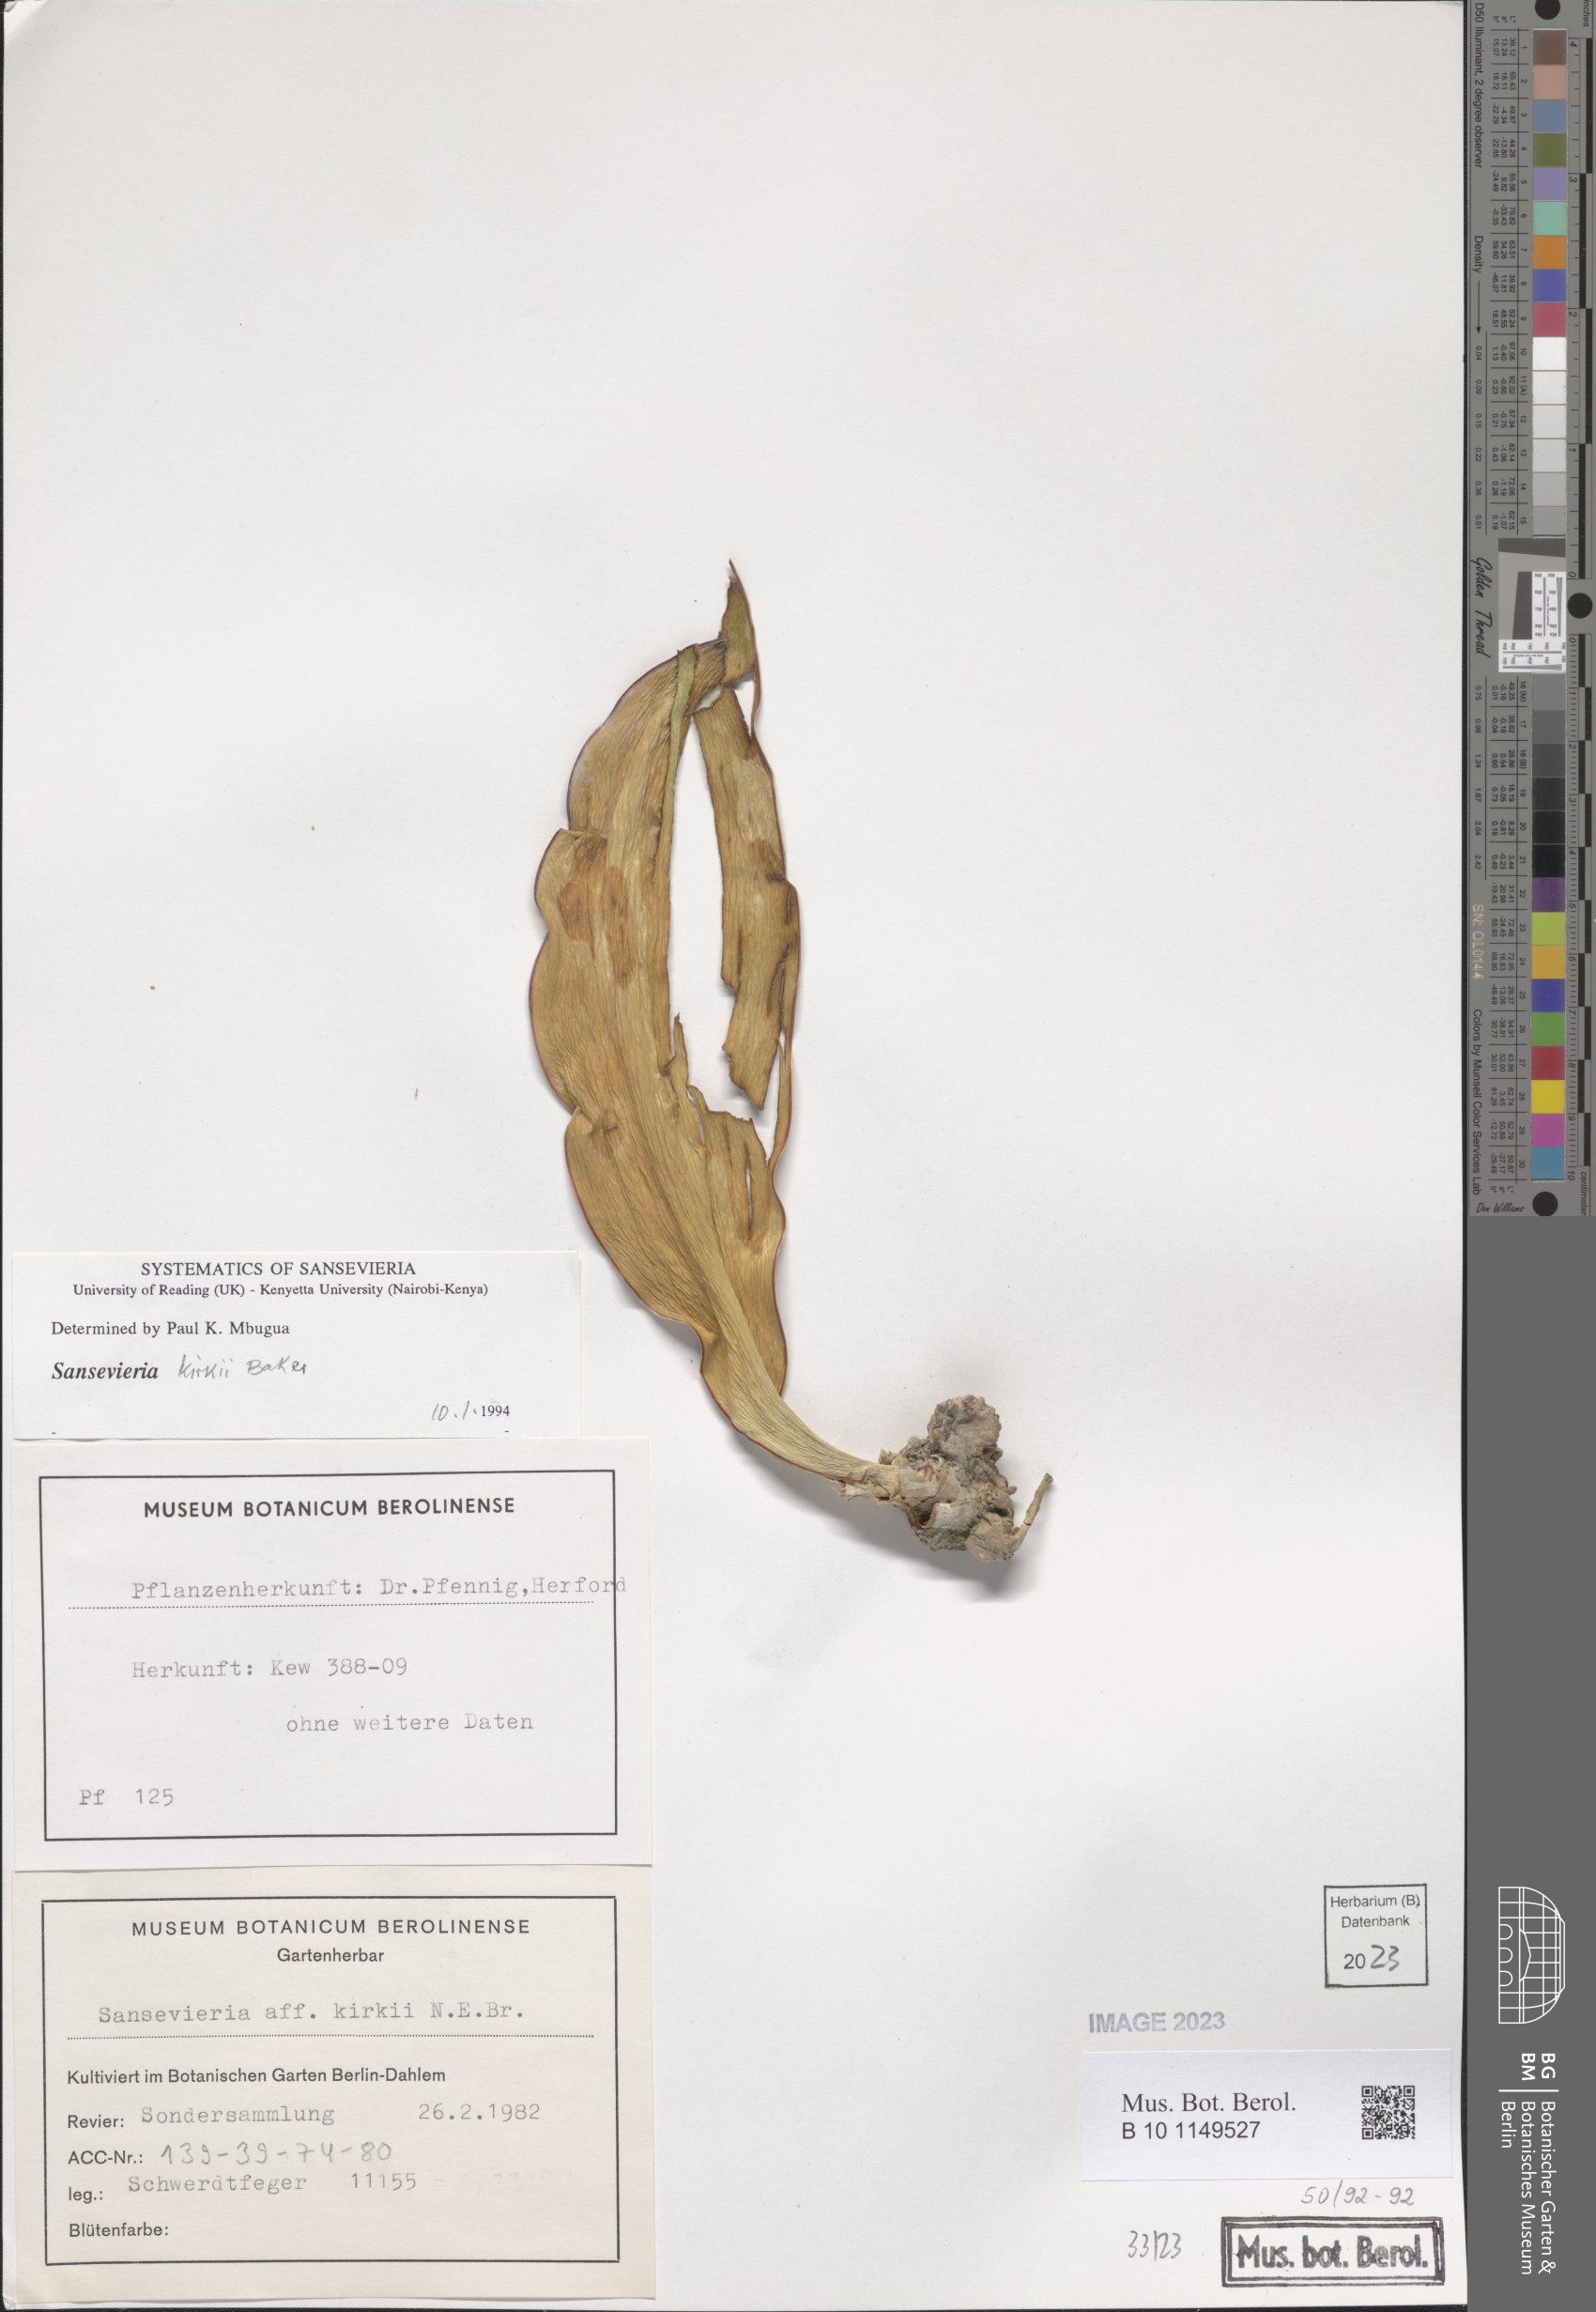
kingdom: Plantae
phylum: Tracheophyta
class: Liliopsida
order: Asparagales
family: Asparagaceae
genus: Dracaena
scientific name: Dracaena pethera
